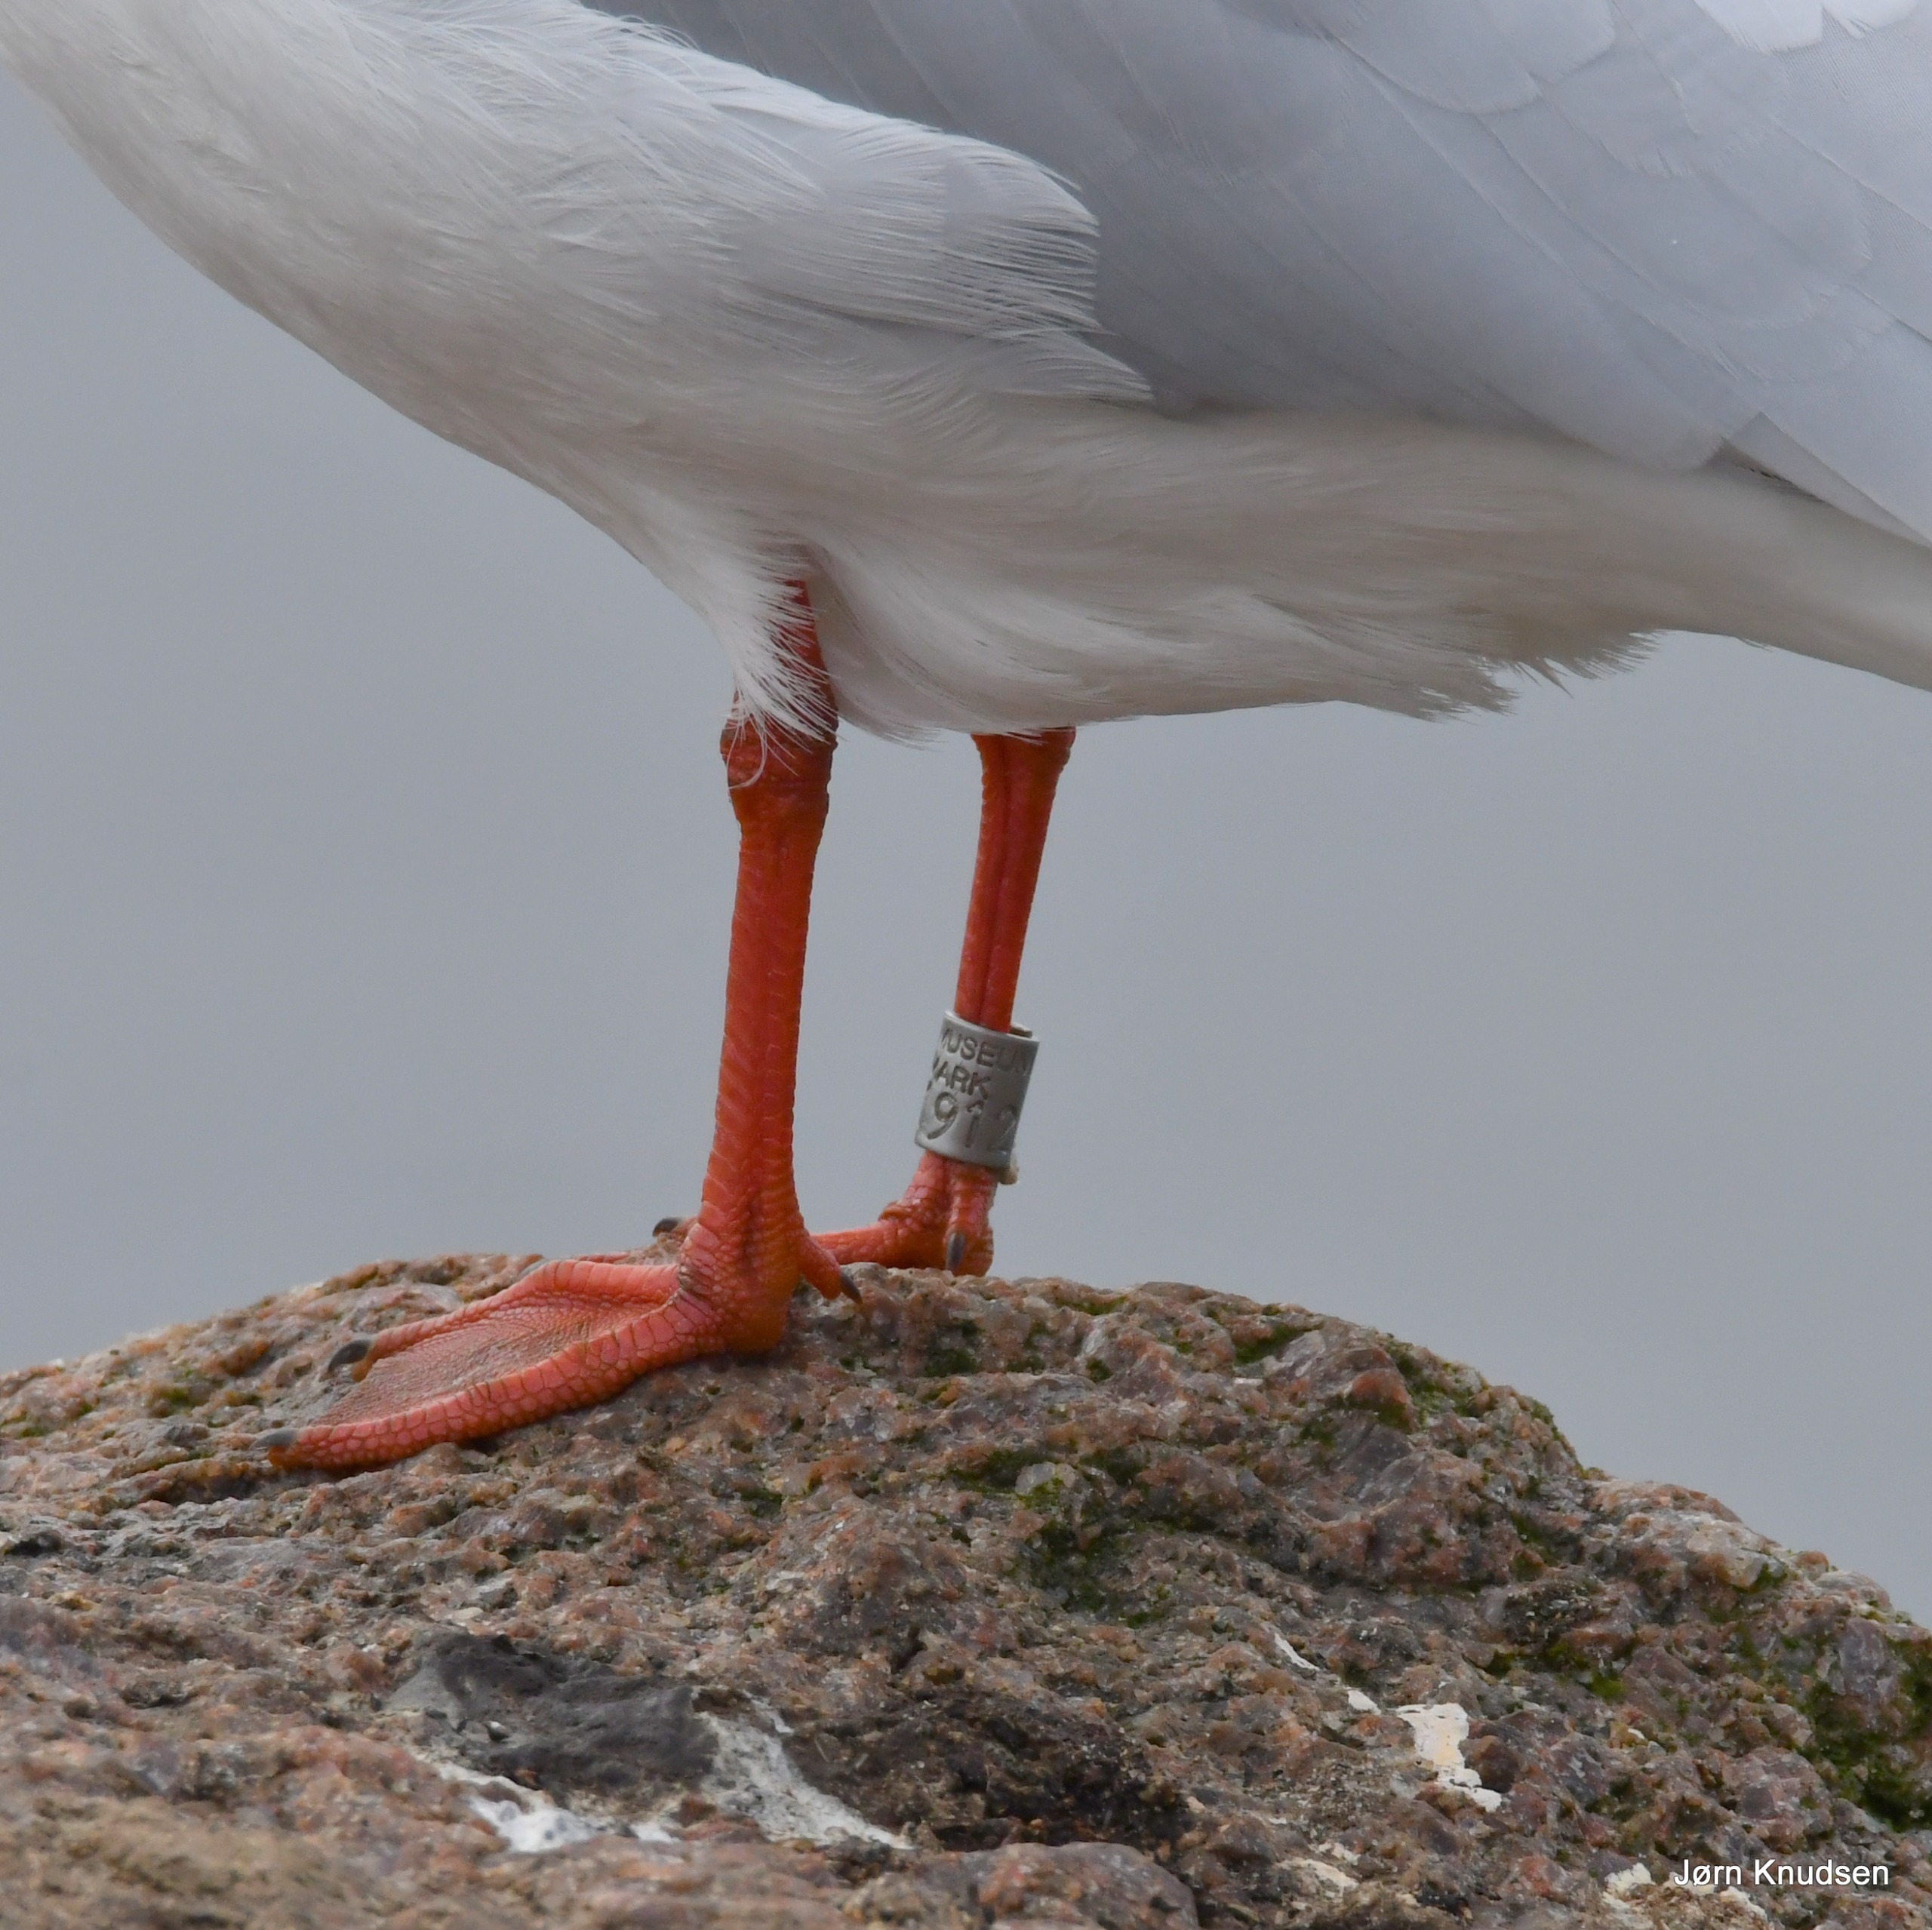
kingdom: Animalia
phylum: Chordata
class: Aves
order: Charadriiformes
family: Laridae
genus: Chroicocephalus
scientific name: Chroicocephalus ridibundus
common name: Hættemåge
